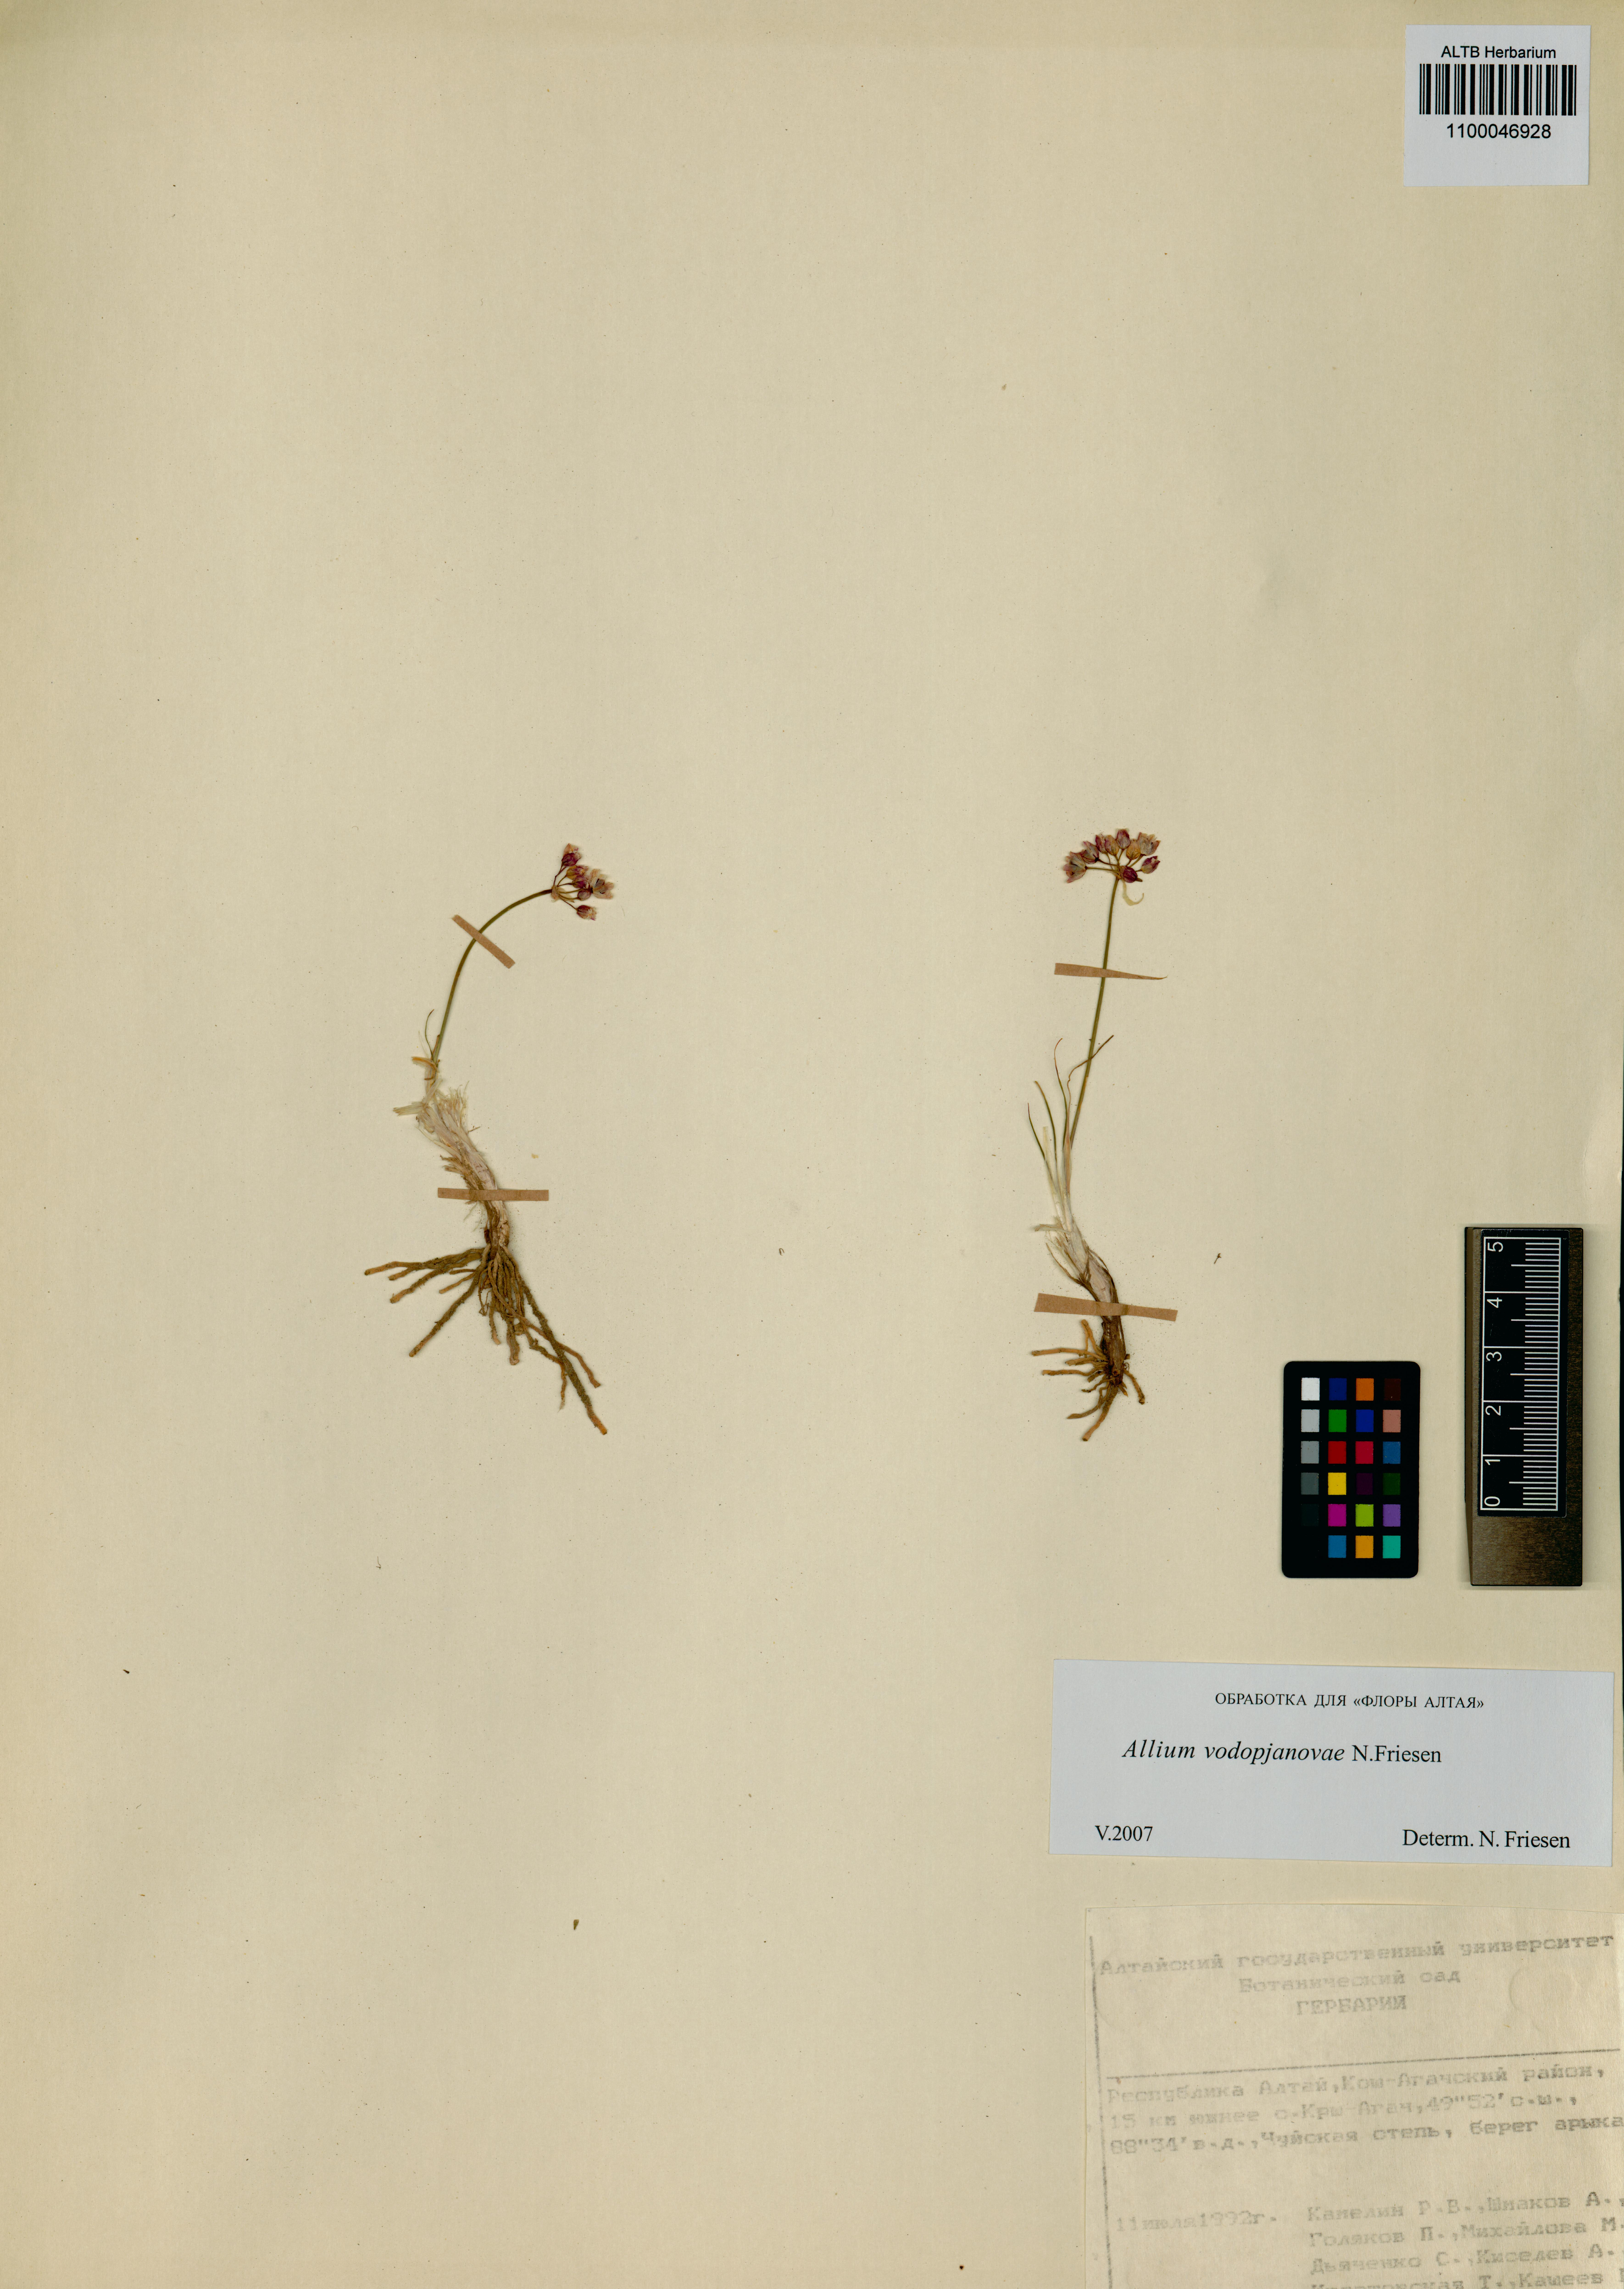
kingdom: Plantae
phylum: Tracheophyta
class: Liliopsida
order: Asparagales
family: Amaryllidaceae
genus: Allium
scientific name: Allium vodopjanovae
